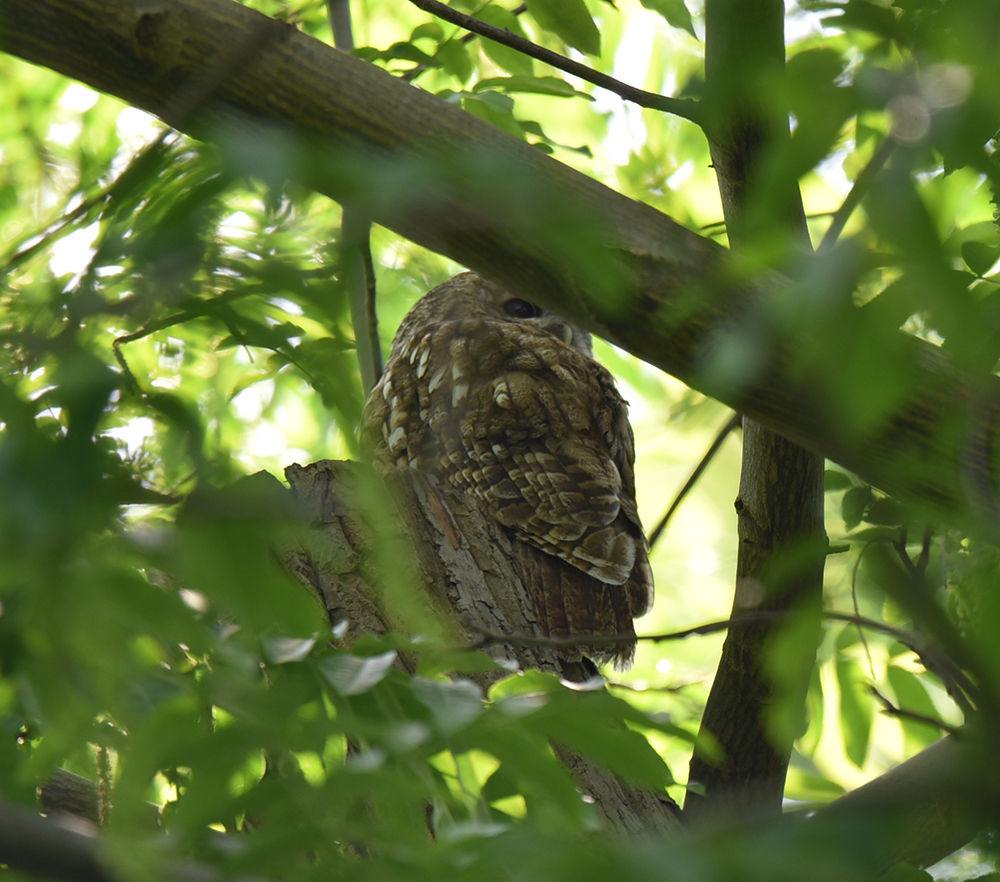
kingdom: Animalia
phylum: Chordata
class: Aves
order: Strigiformes
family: Strigidae
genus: Strix
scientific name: Strix aluco
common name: Tawny owl
